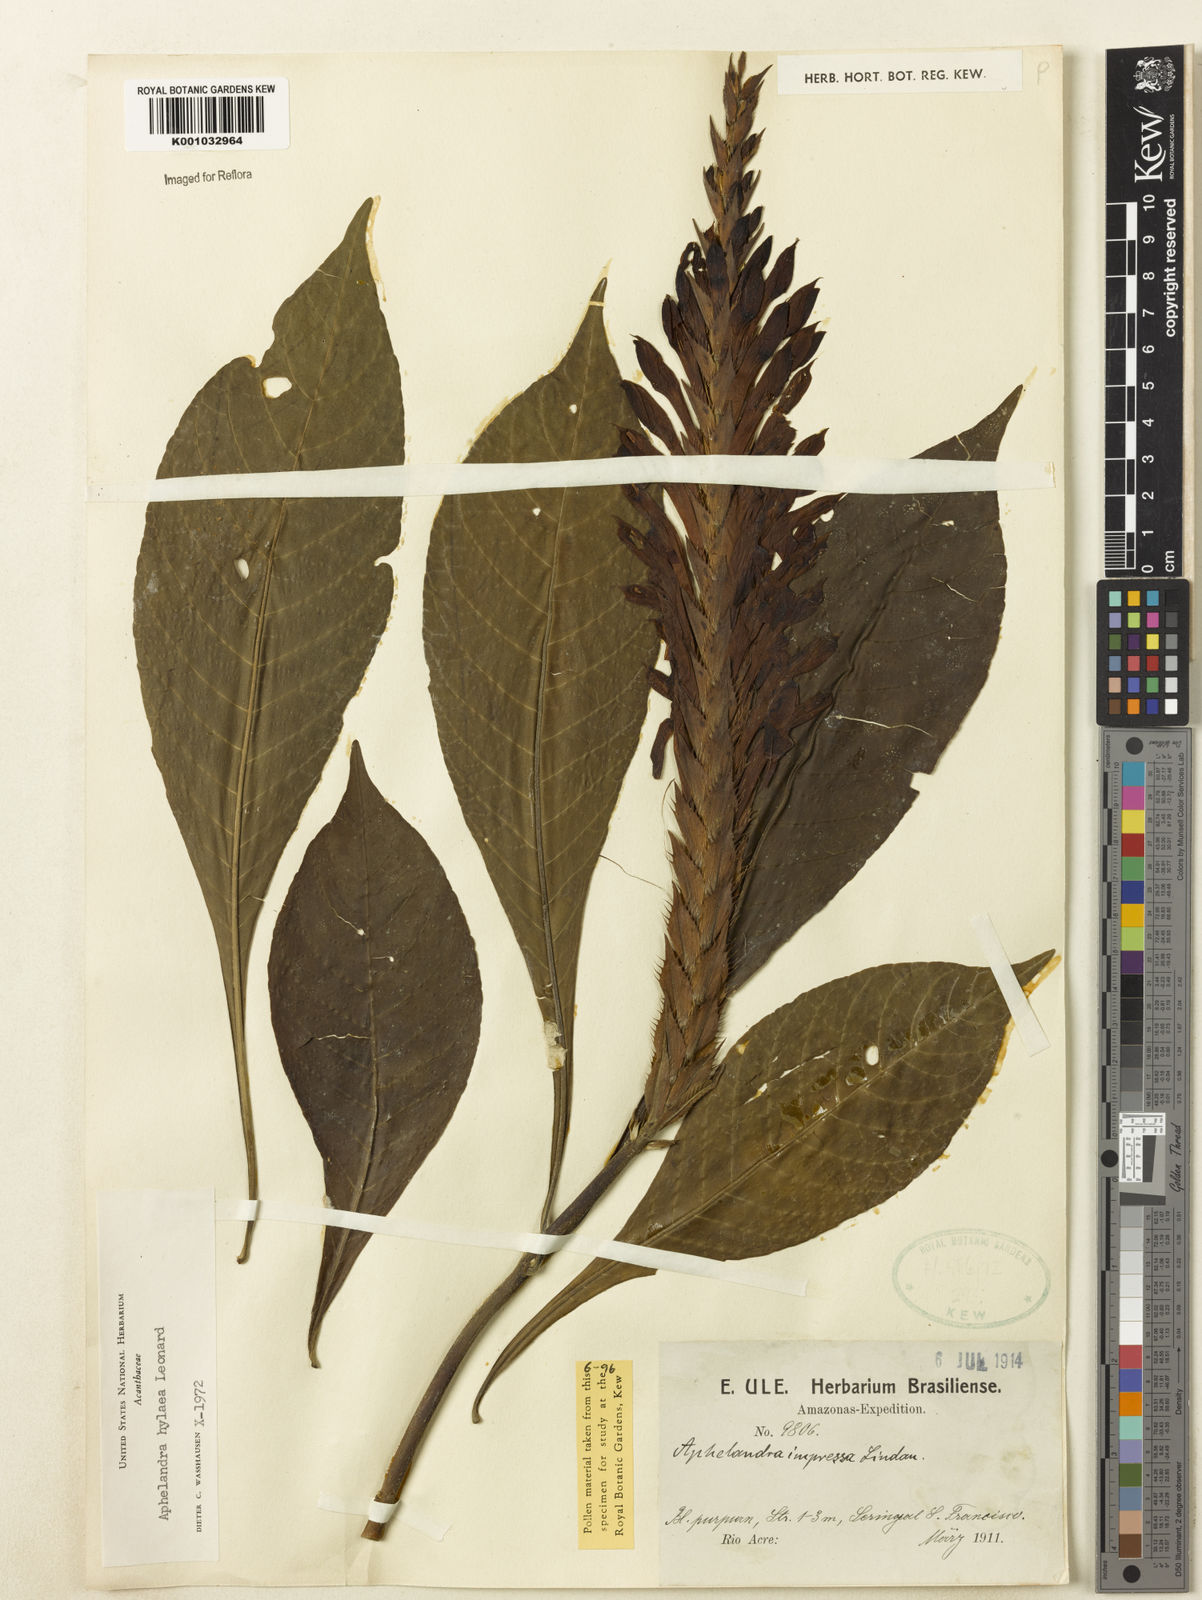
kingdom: Plantae
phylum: Tracheophyta
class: Magnoliopsida
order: Lamiales
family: Acanthaceae
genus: Aphelandra
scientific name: Aphelandra hylaea
